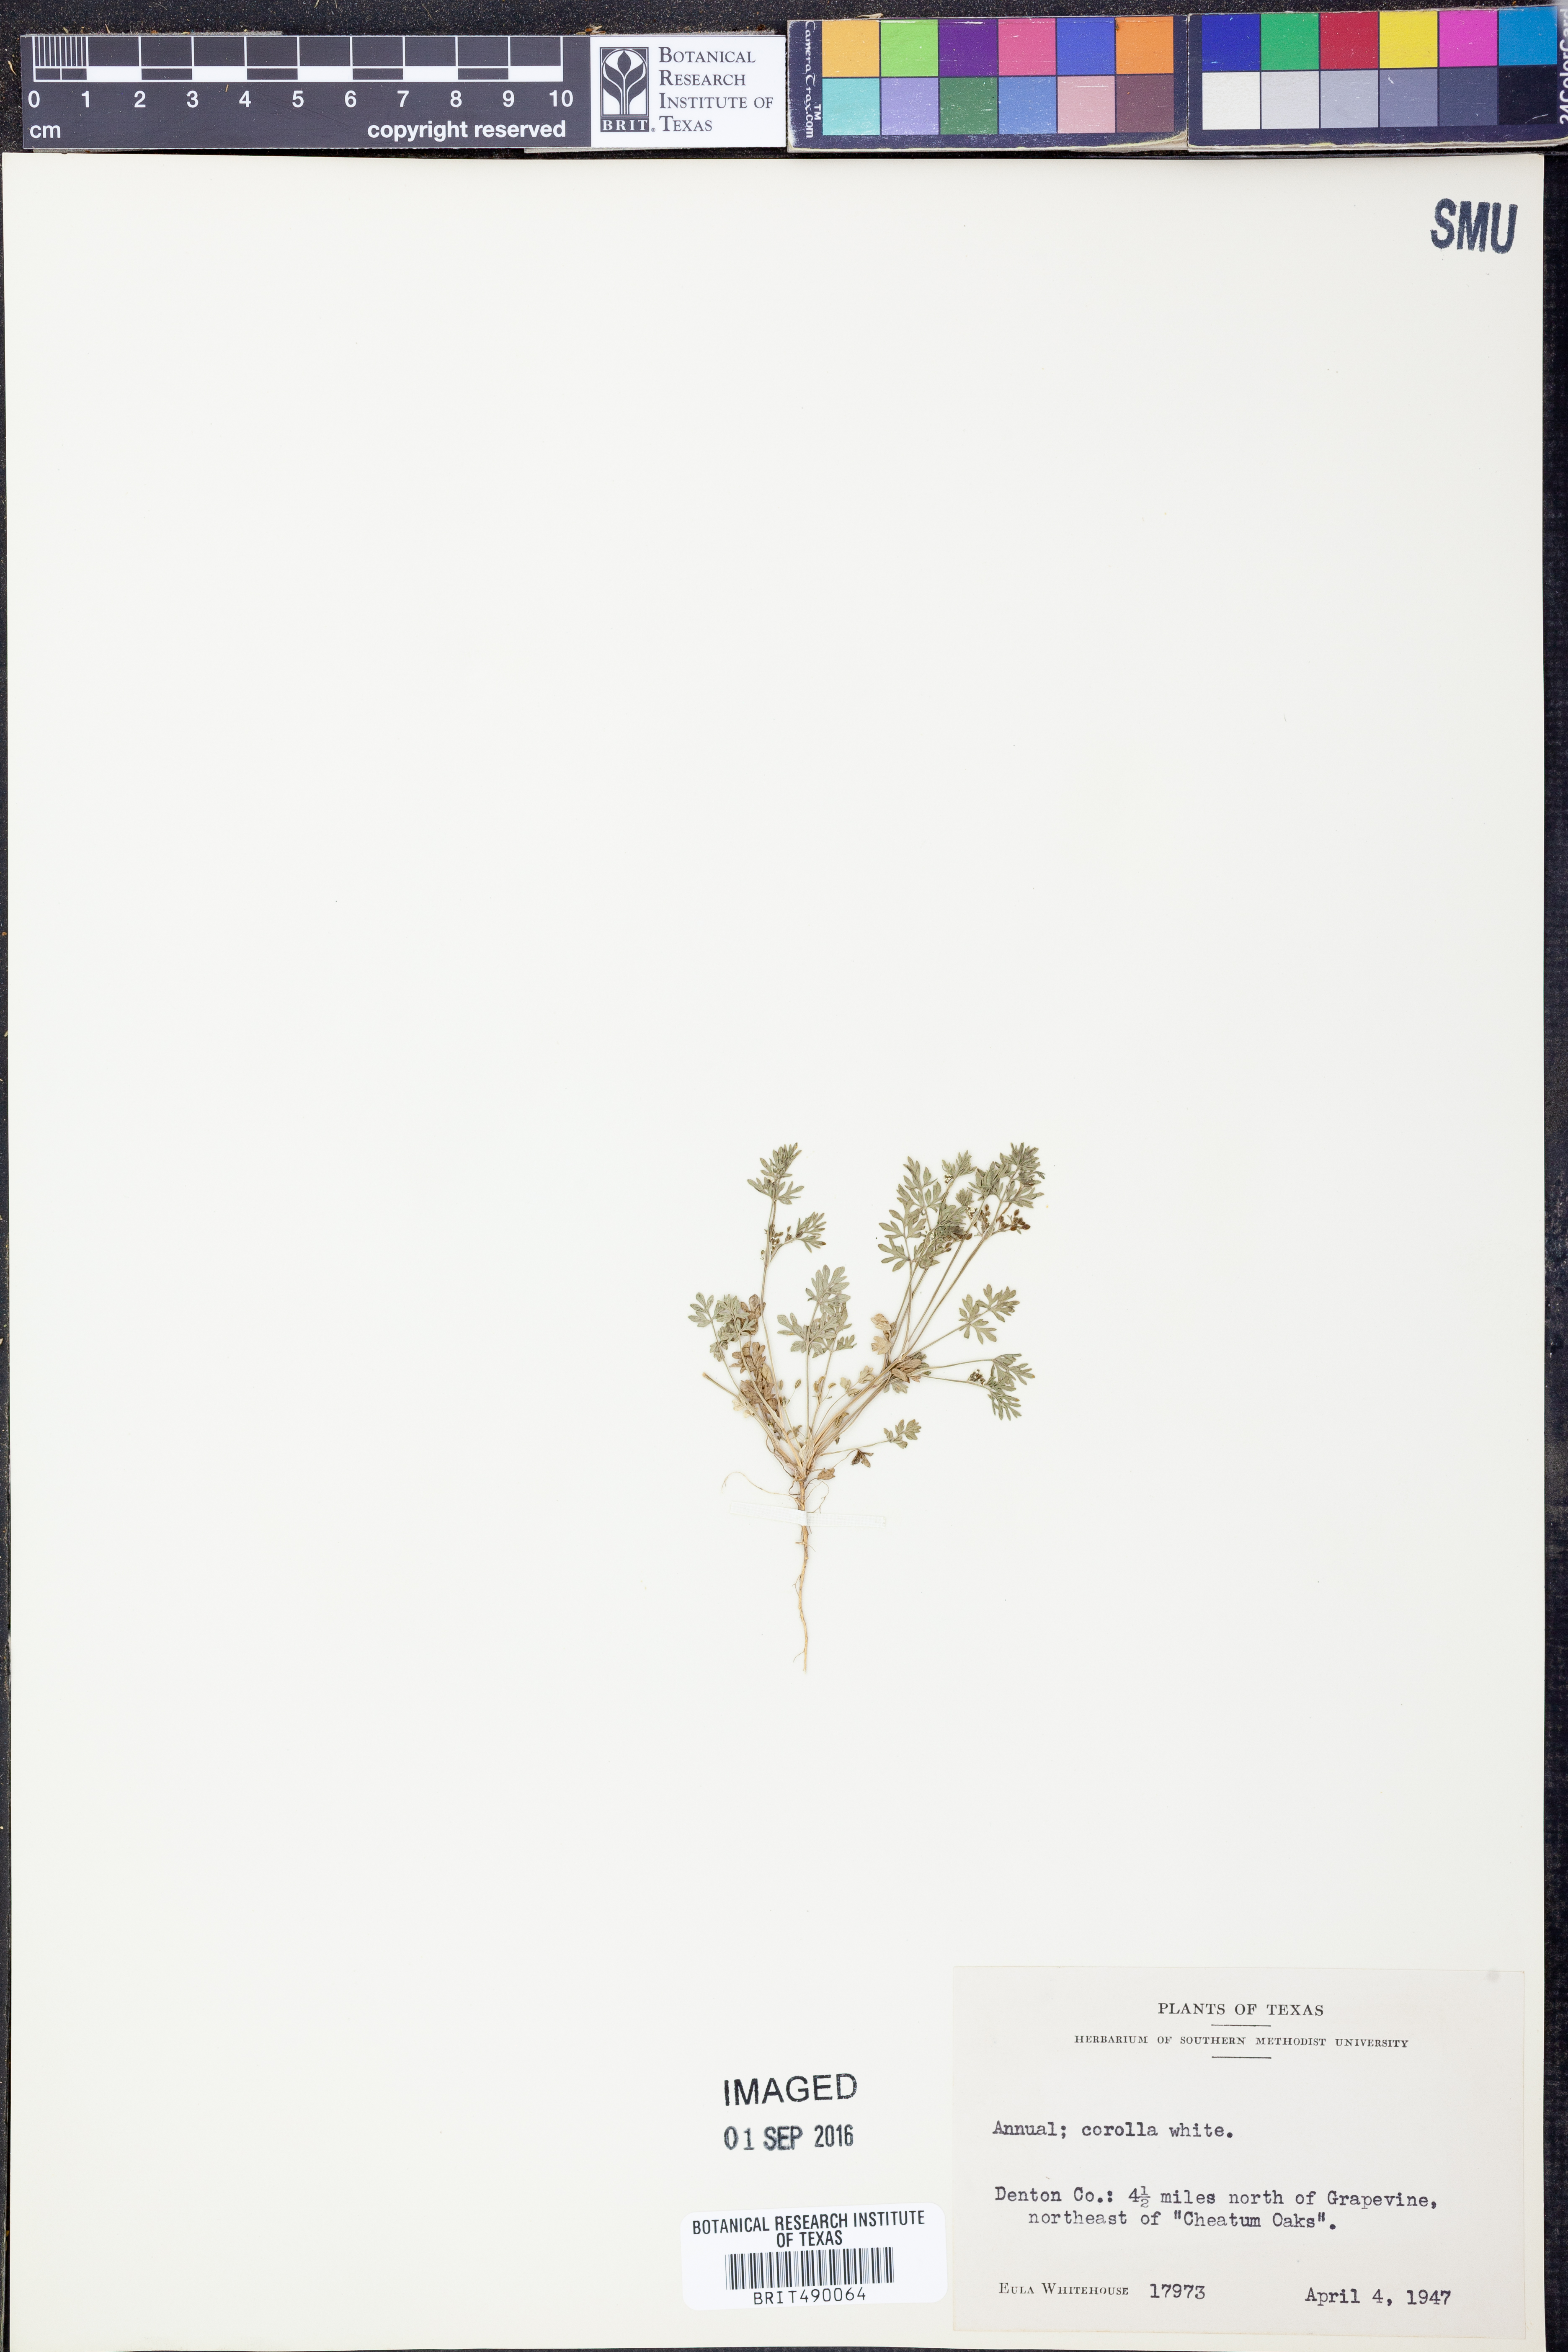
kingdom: Plantae
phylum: Tracheophyta
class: Magnoliopsida
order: Apiales
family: Apiaceae
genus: Ammoselinum
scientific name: Ammoselinum butleri
